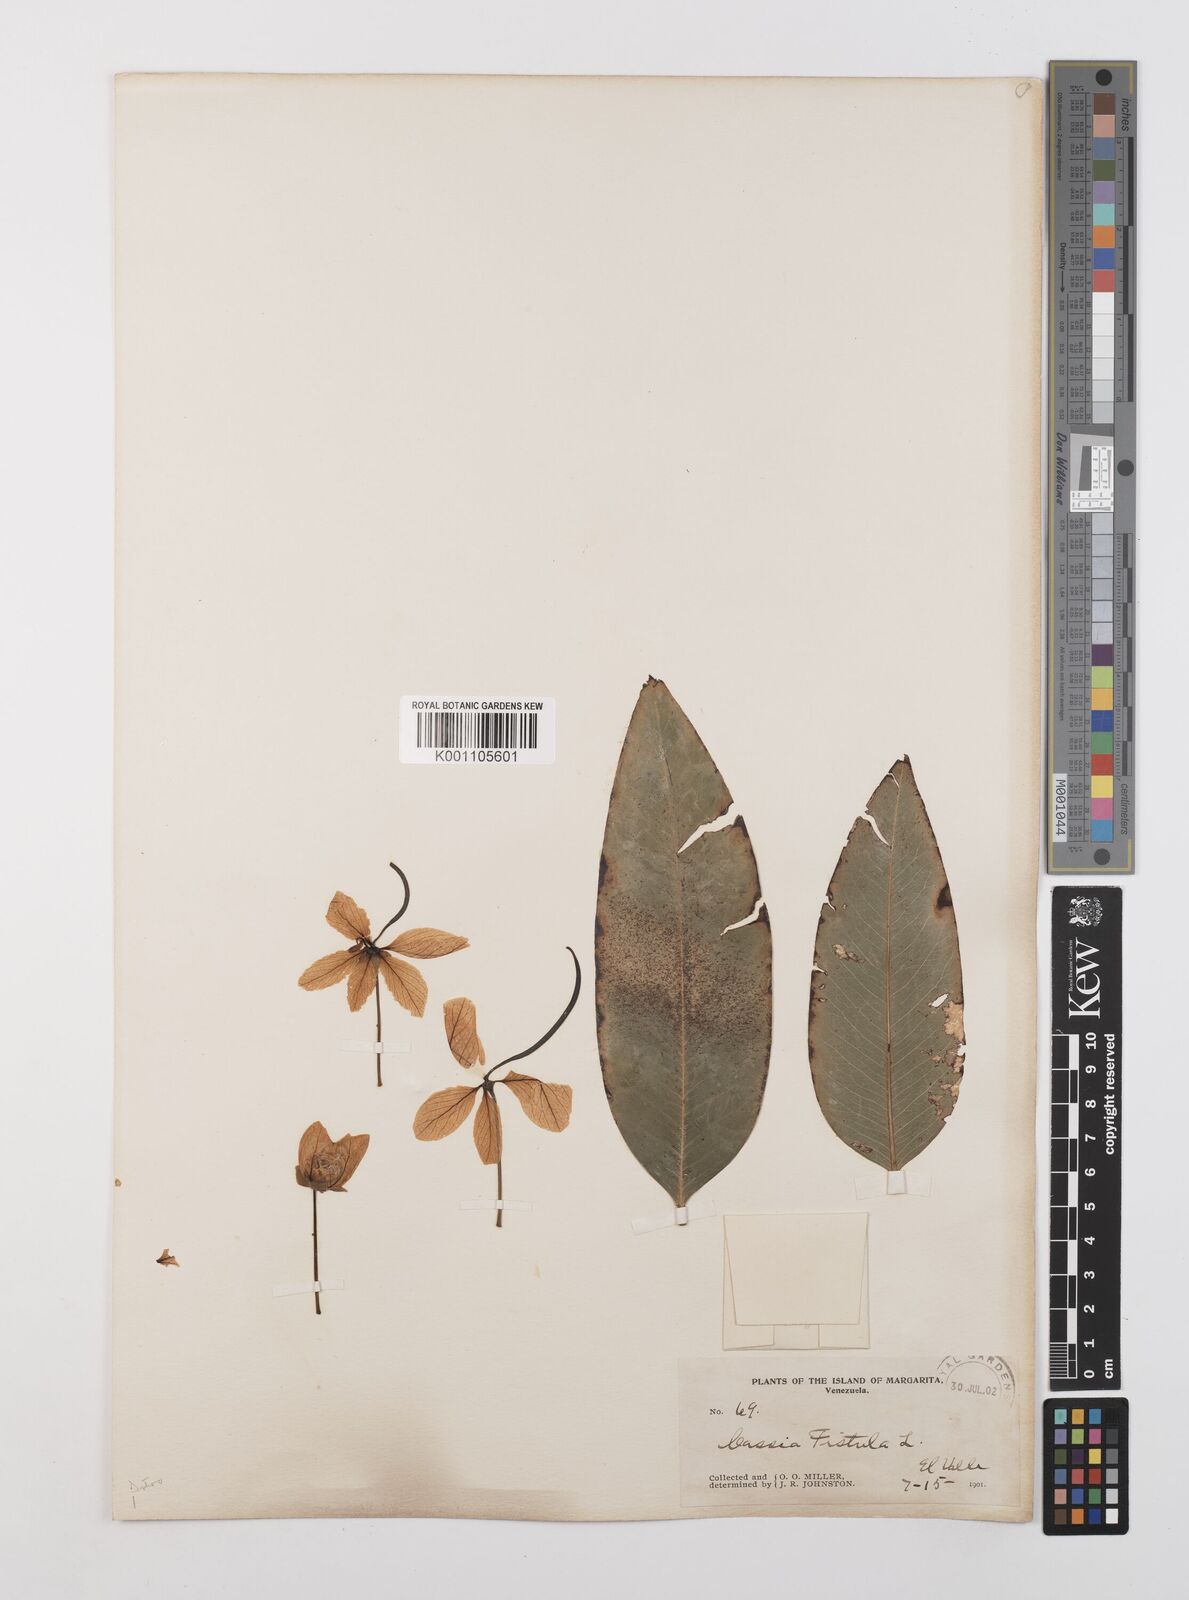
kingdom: Plantae
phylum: Tracheophyta
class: Magnoliopsida
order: Fabales
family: Fabaceae
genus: Cassia
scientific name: Cassia fistula
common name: Golden shower
